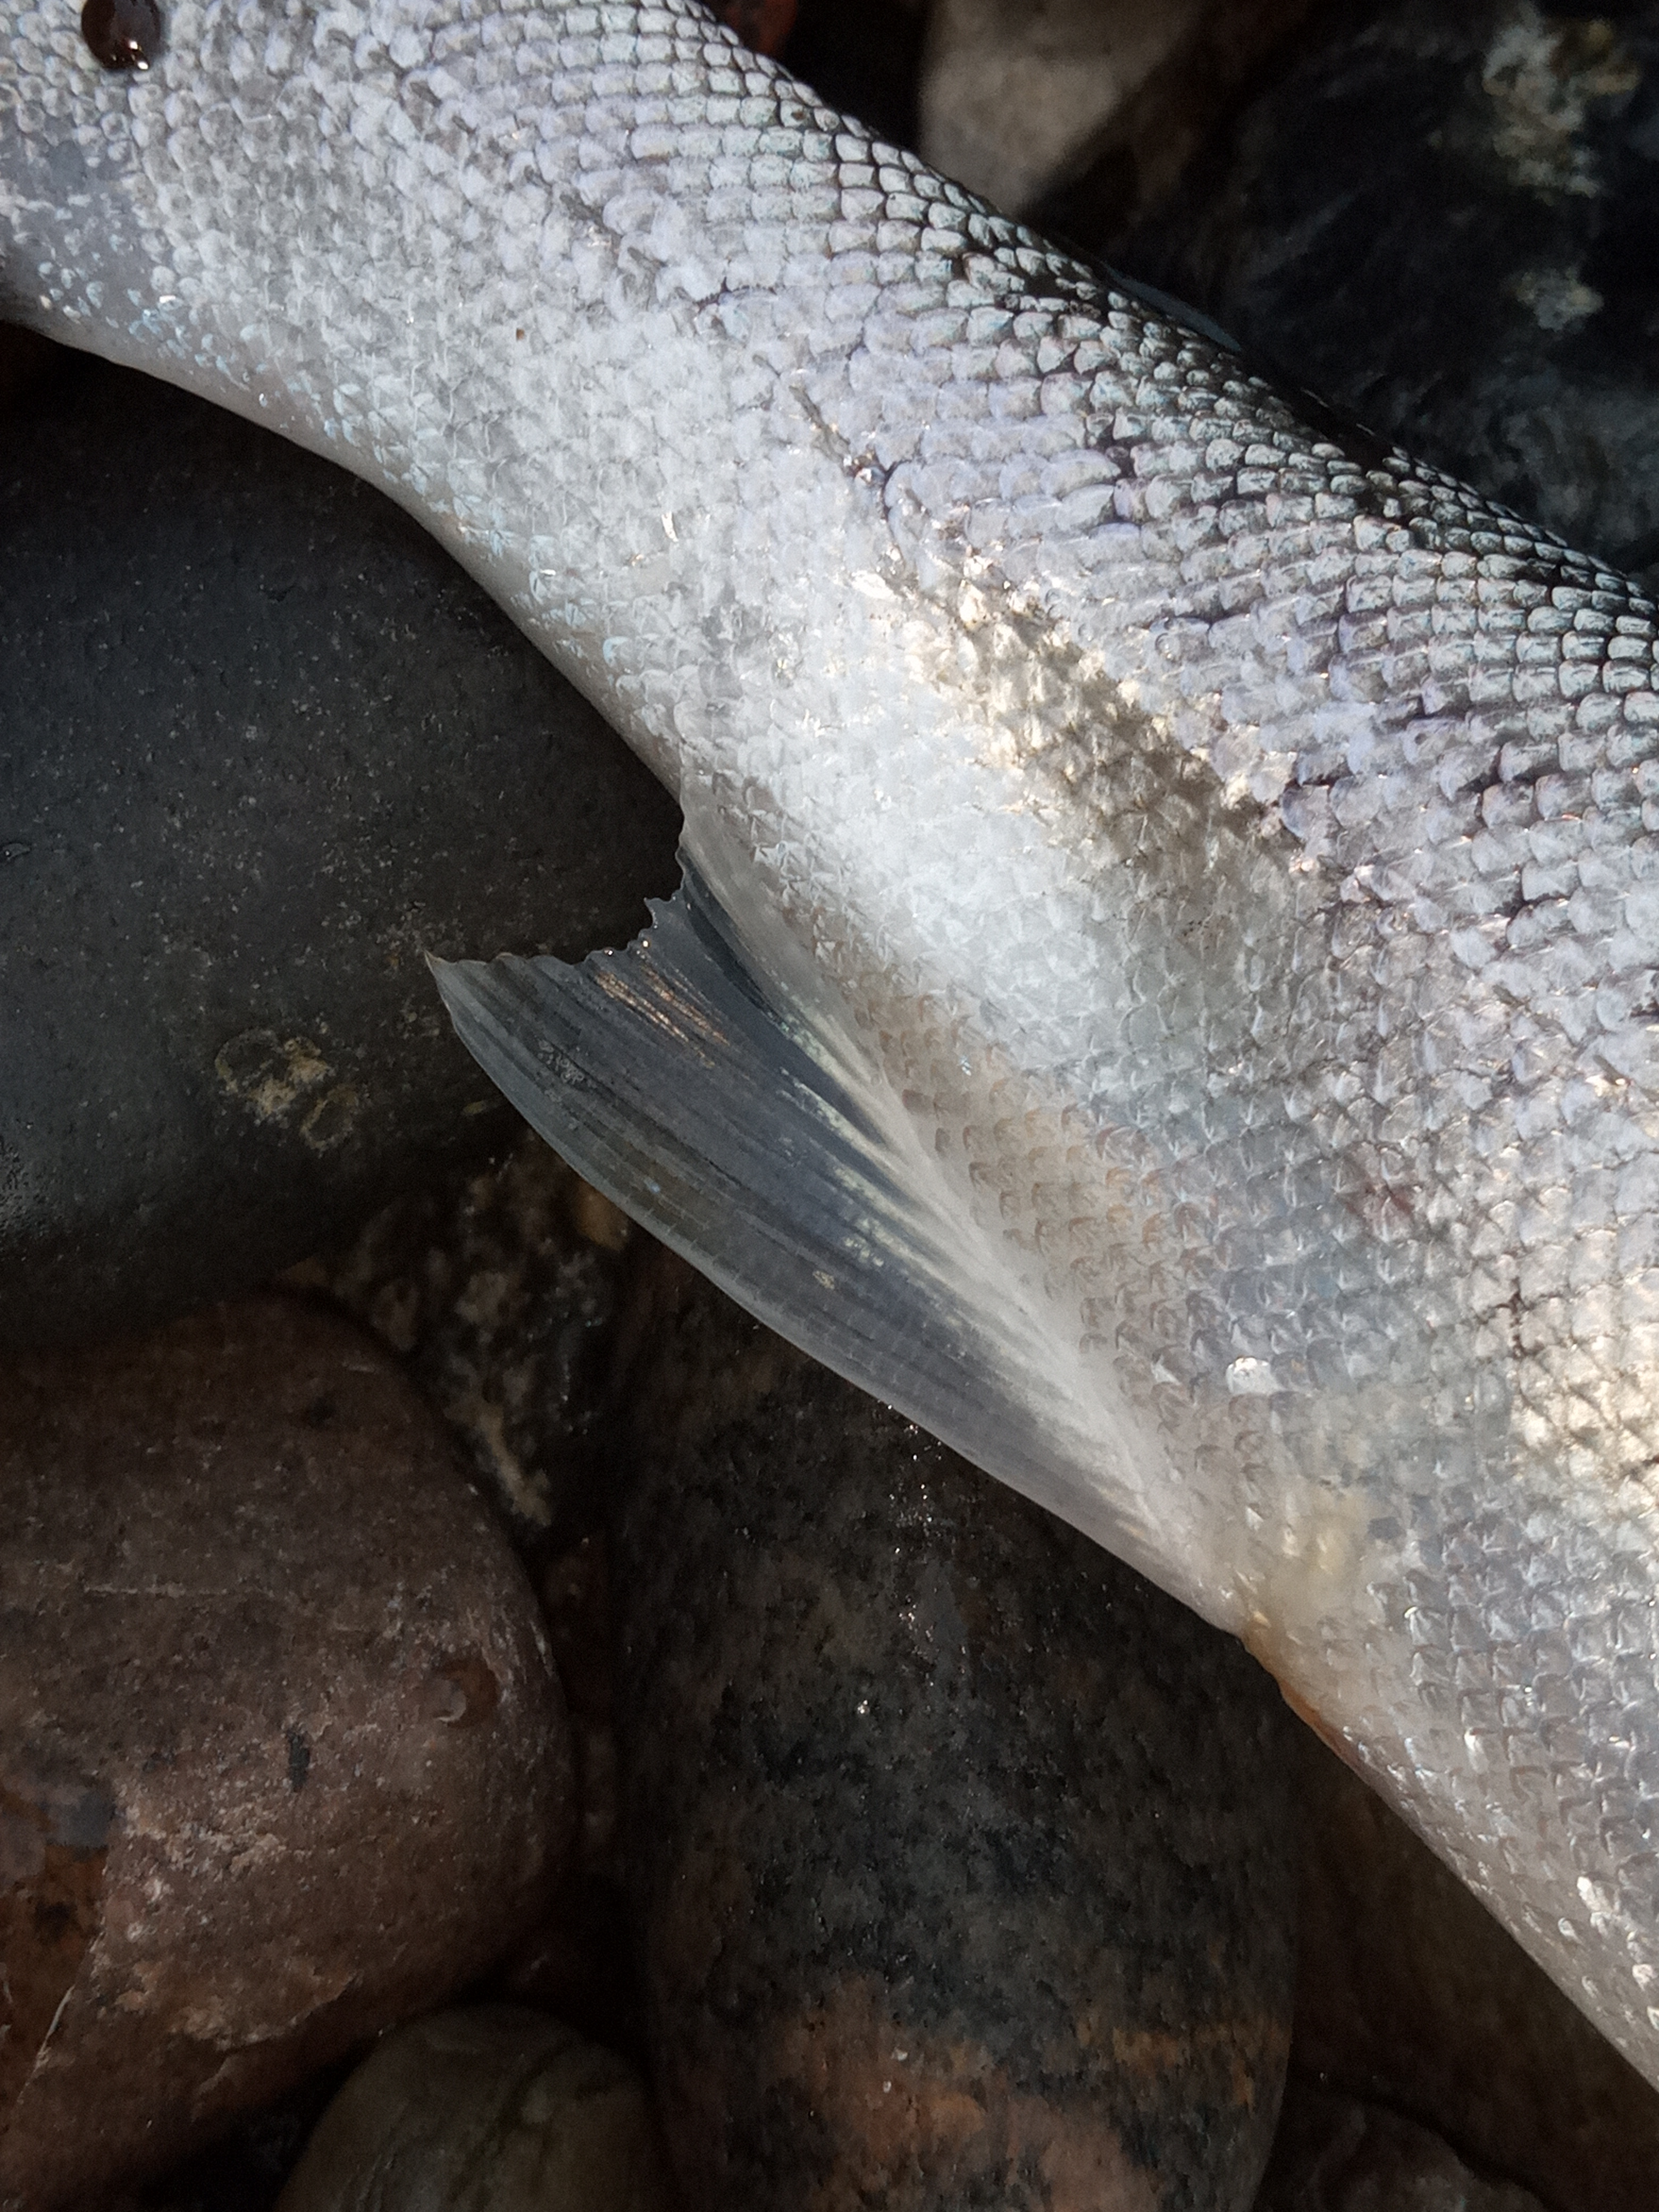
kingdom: Animalia
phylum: Chordata
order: Salmoniformes
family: Salmonidae
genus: Salmo
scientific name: Salmo trutta
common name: Ørred
